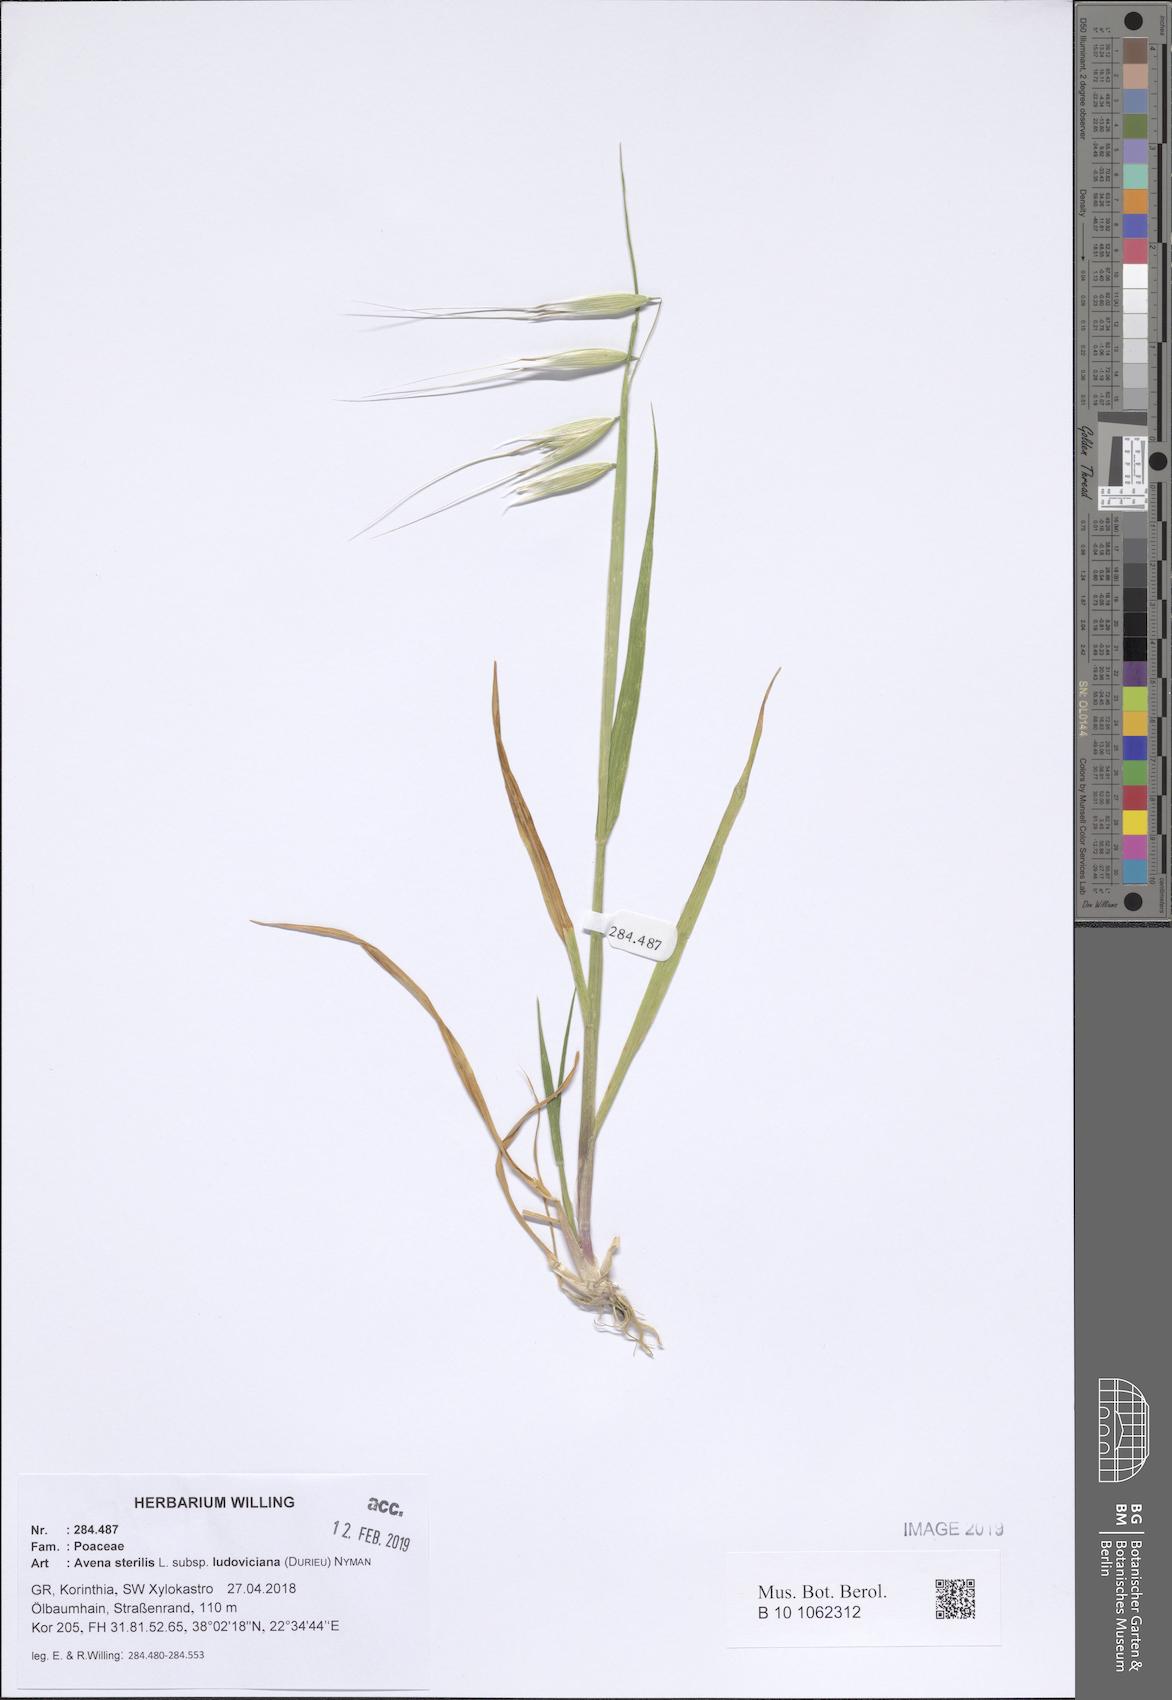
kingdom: Plantae
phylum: Tracheophyta
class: Liliopsida
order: Poales
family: Poaceae
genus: Avena
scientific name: Avena sterilis
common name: Animated oat
